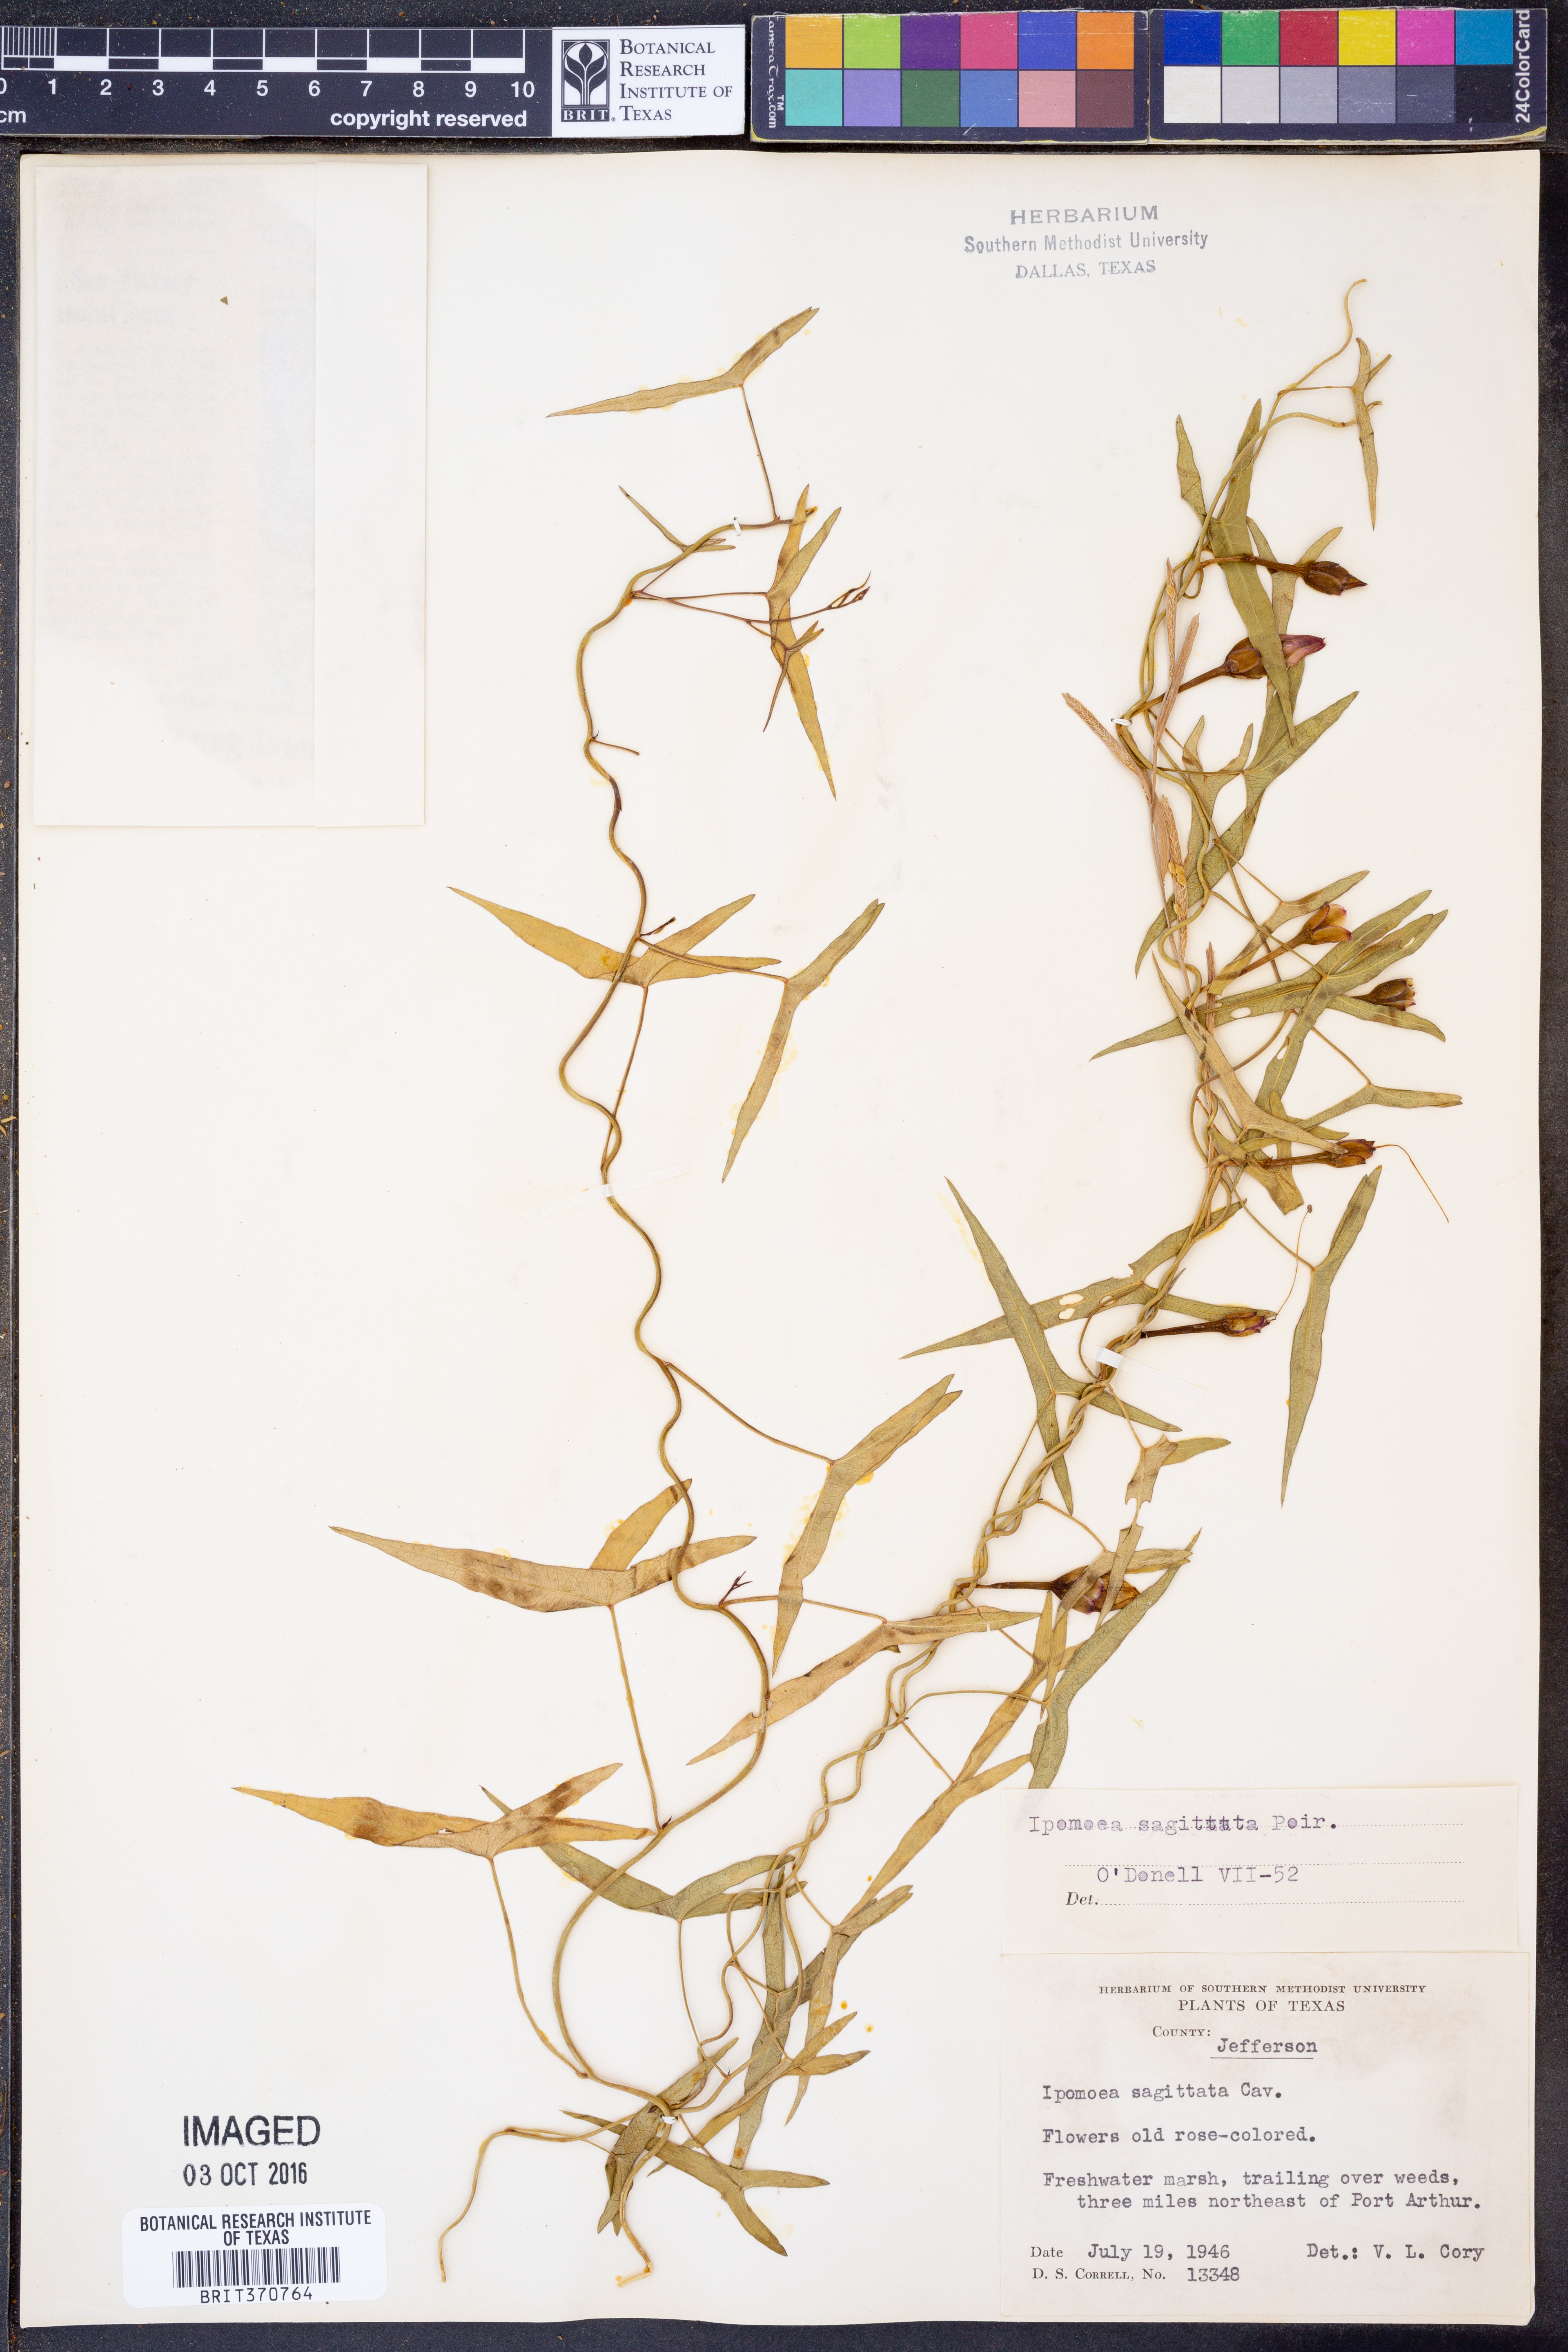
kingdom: Plantae
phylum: Tracheophyta
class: Magnoliopsida
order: Solanales
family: Convolvulaceae
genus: Ipomoea
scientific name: Ipomoea sinensis
